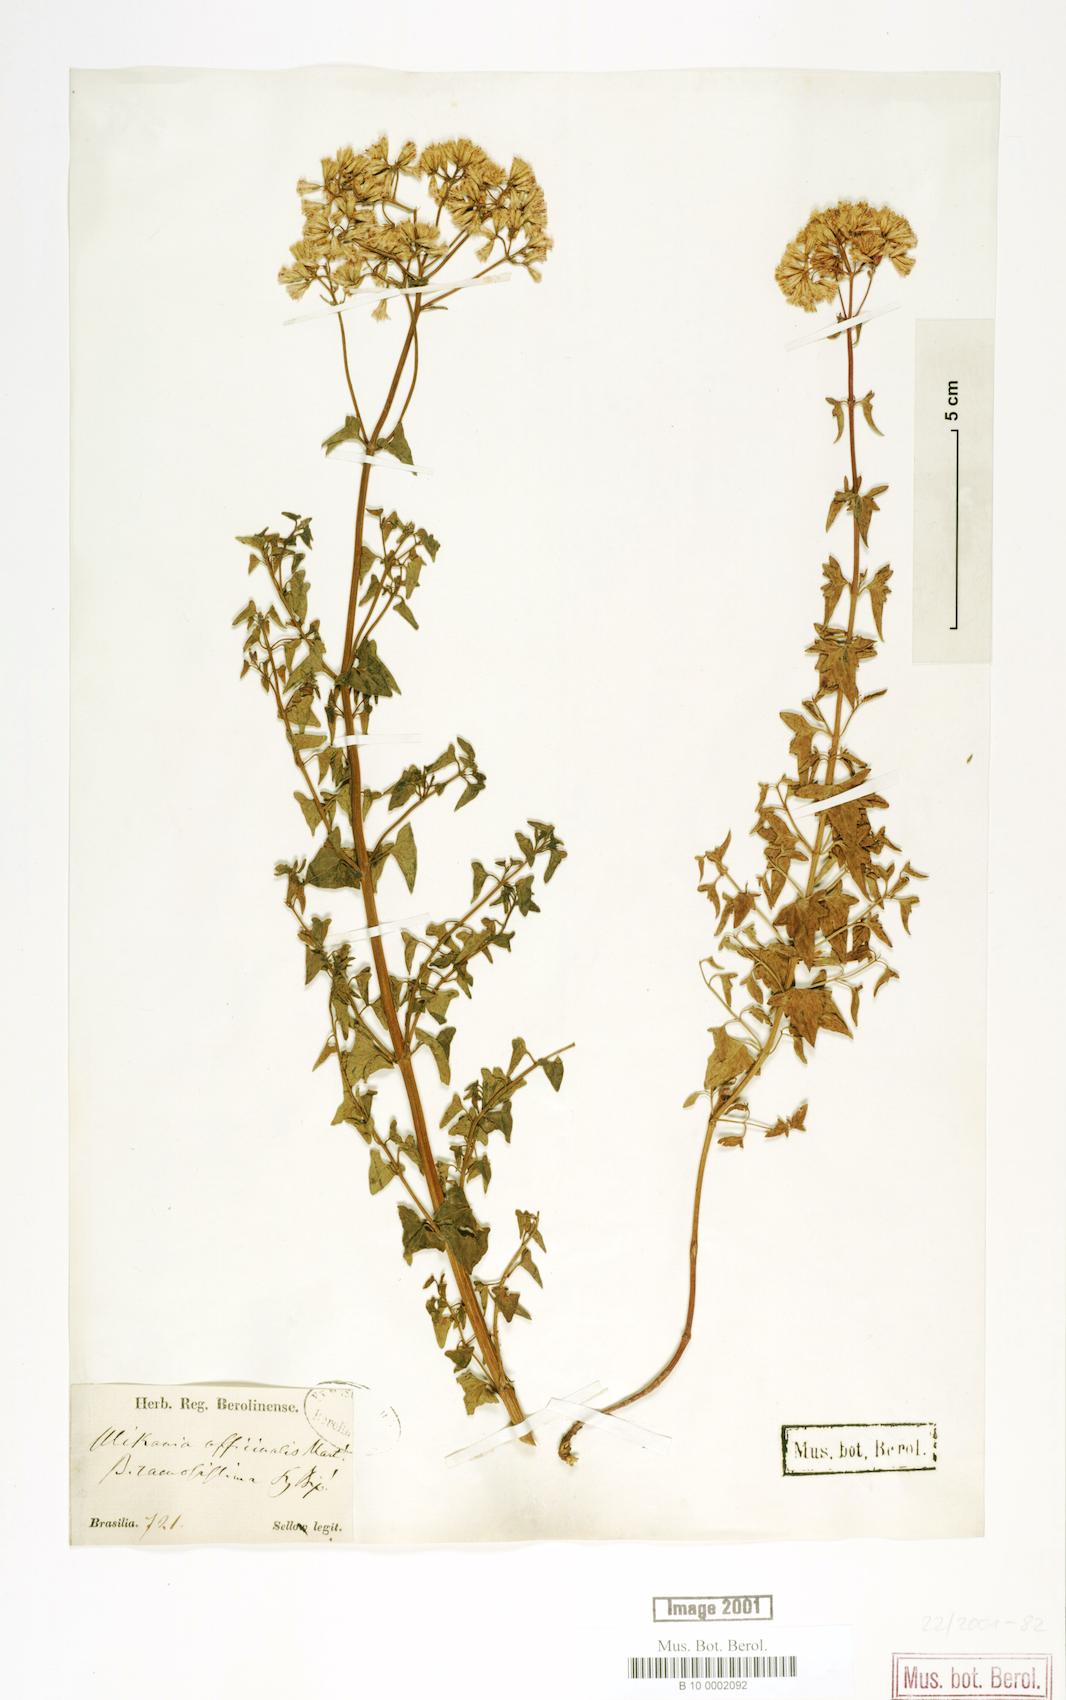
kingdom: Plantae
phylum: Tracheophyta
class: Magnoliopsida
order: Asterales
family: Asteraceae
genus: Mikania
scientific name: Mikania officinalis
